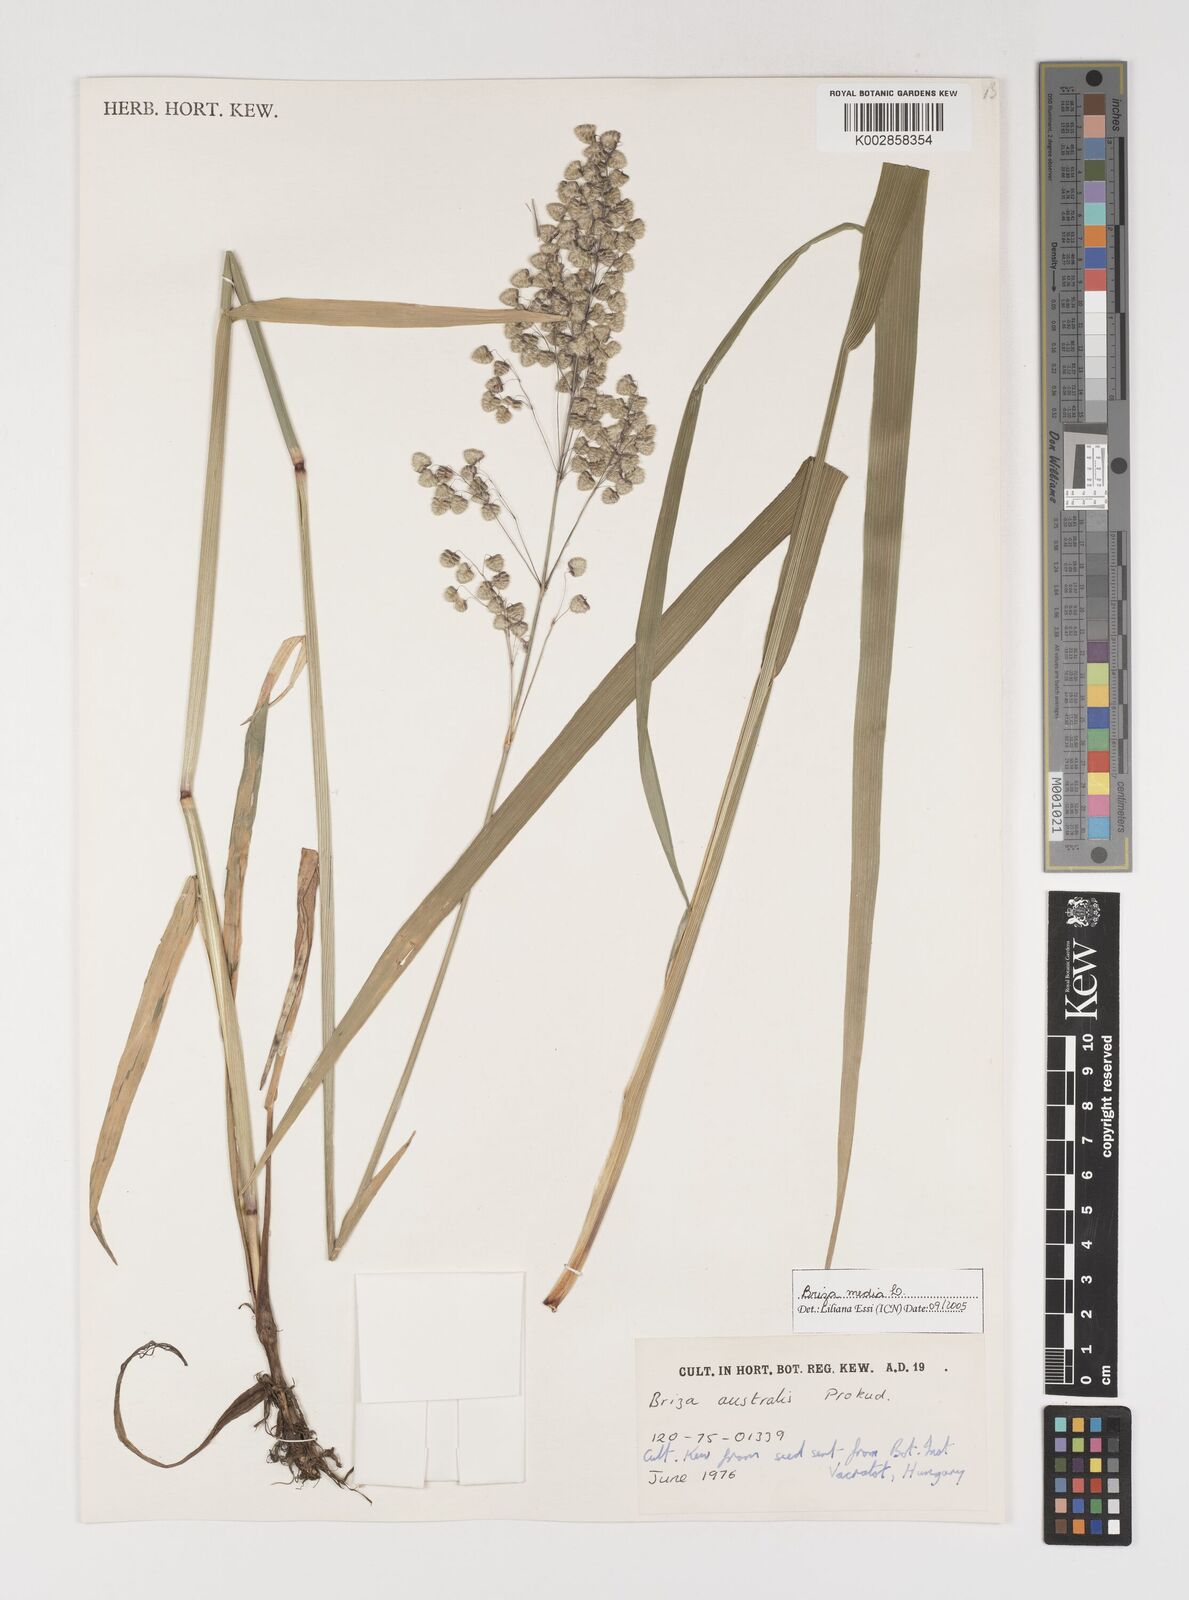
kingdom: Plantae
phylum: Tracheophyta
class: Liliopsida
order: Poales
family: Poaceae
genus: Briza
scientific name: Briza media
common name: Quaking grass
